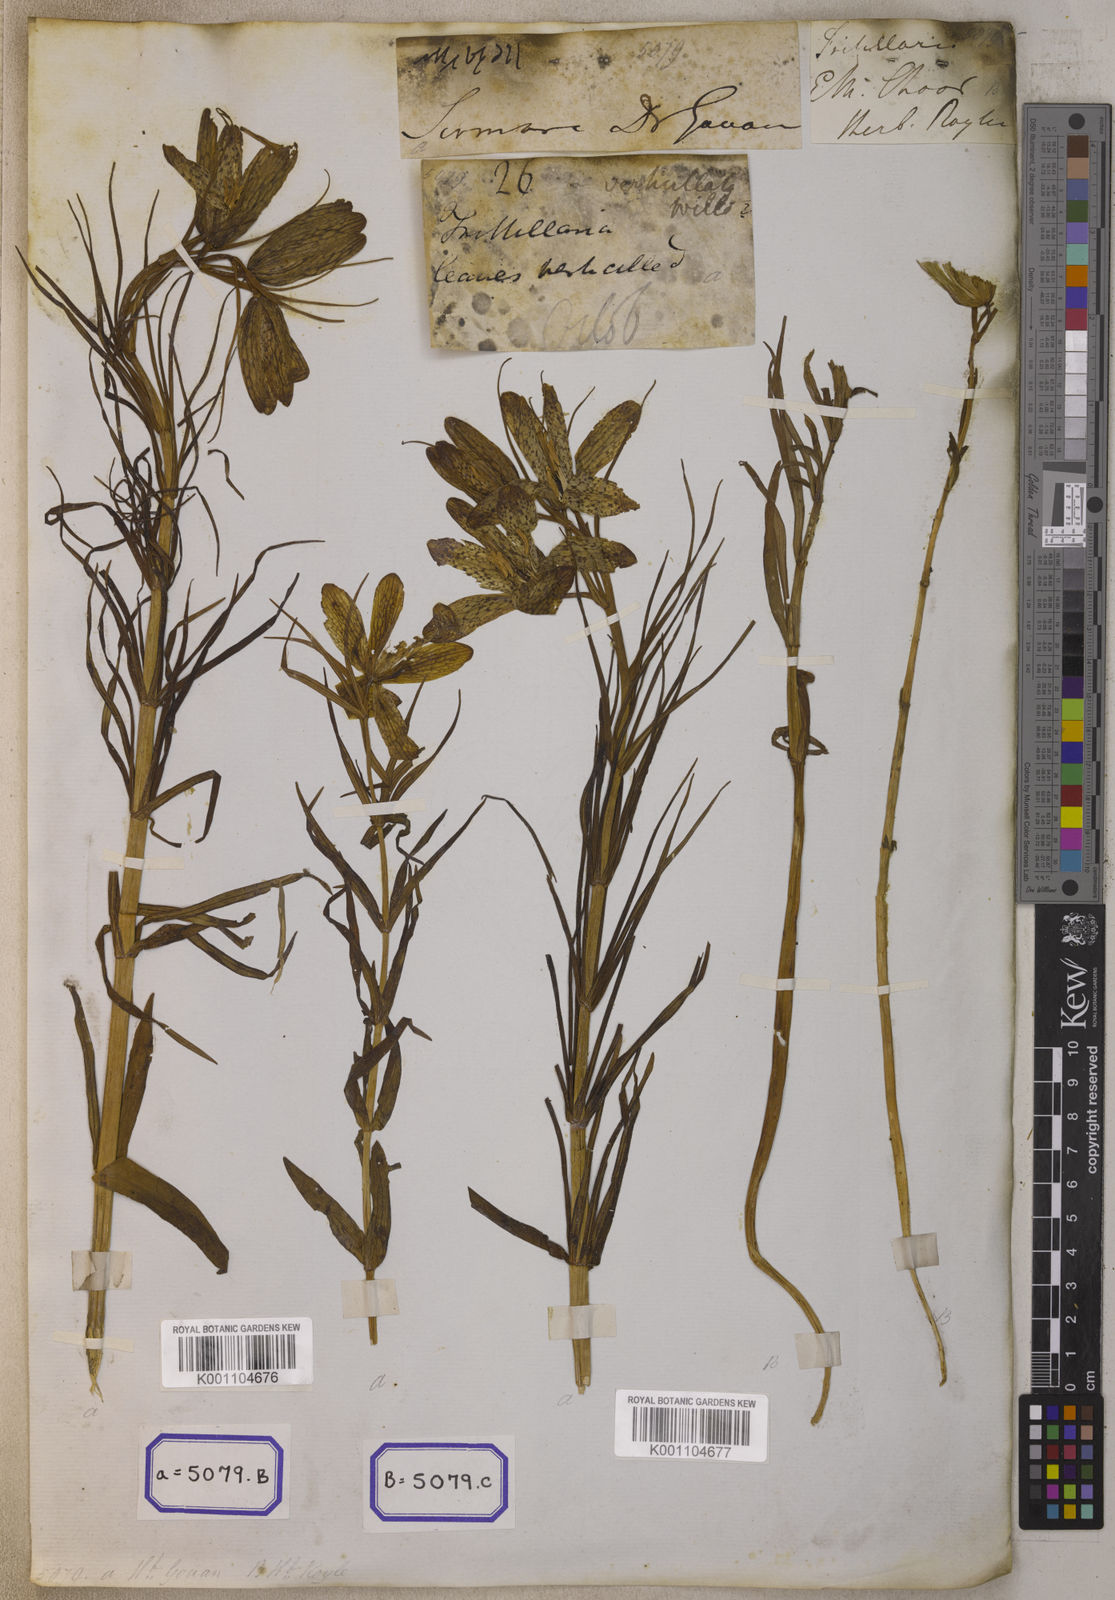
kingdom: Plantae
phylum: Tracheophyta
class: Liliopsida
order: Liliales
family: Liliaceae
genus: Fritillaria
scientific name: Fritillaria
